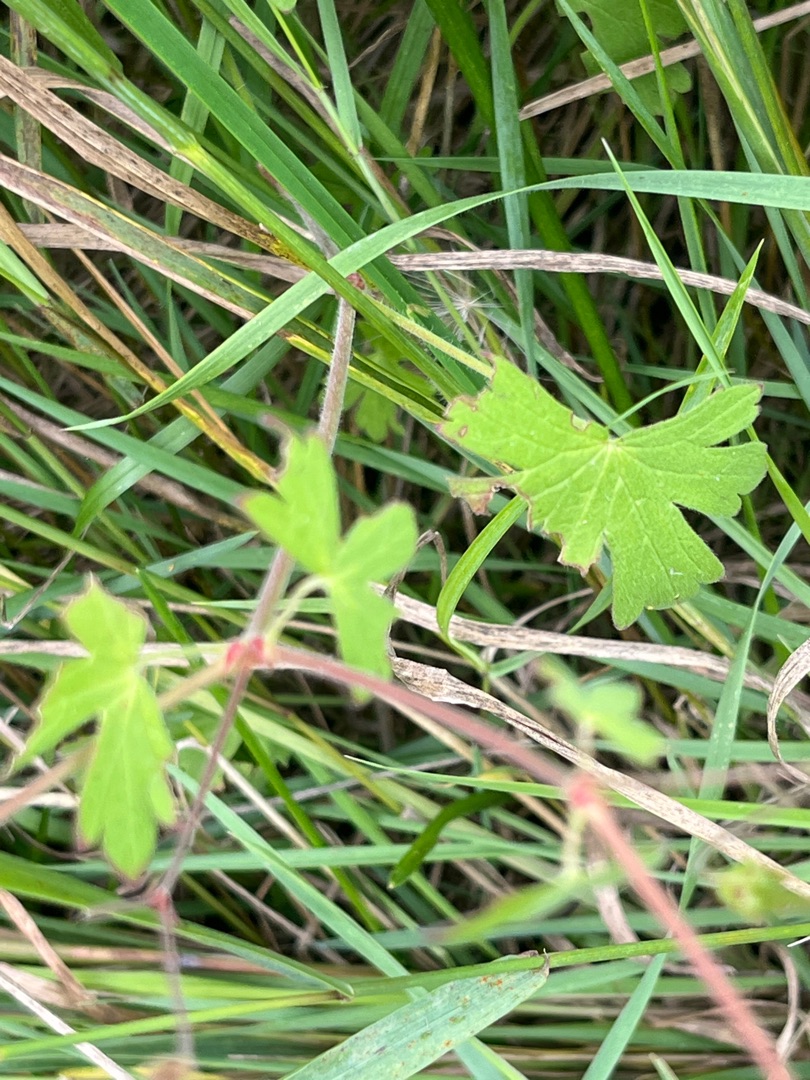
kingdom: Plantae
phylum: Tracheophyta
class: Magnoliopsida
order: Geraniales
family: Geraniaceae
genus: Geranium
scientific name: Geranium pyrenaicum
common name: Pyrenæisk storkenæb
